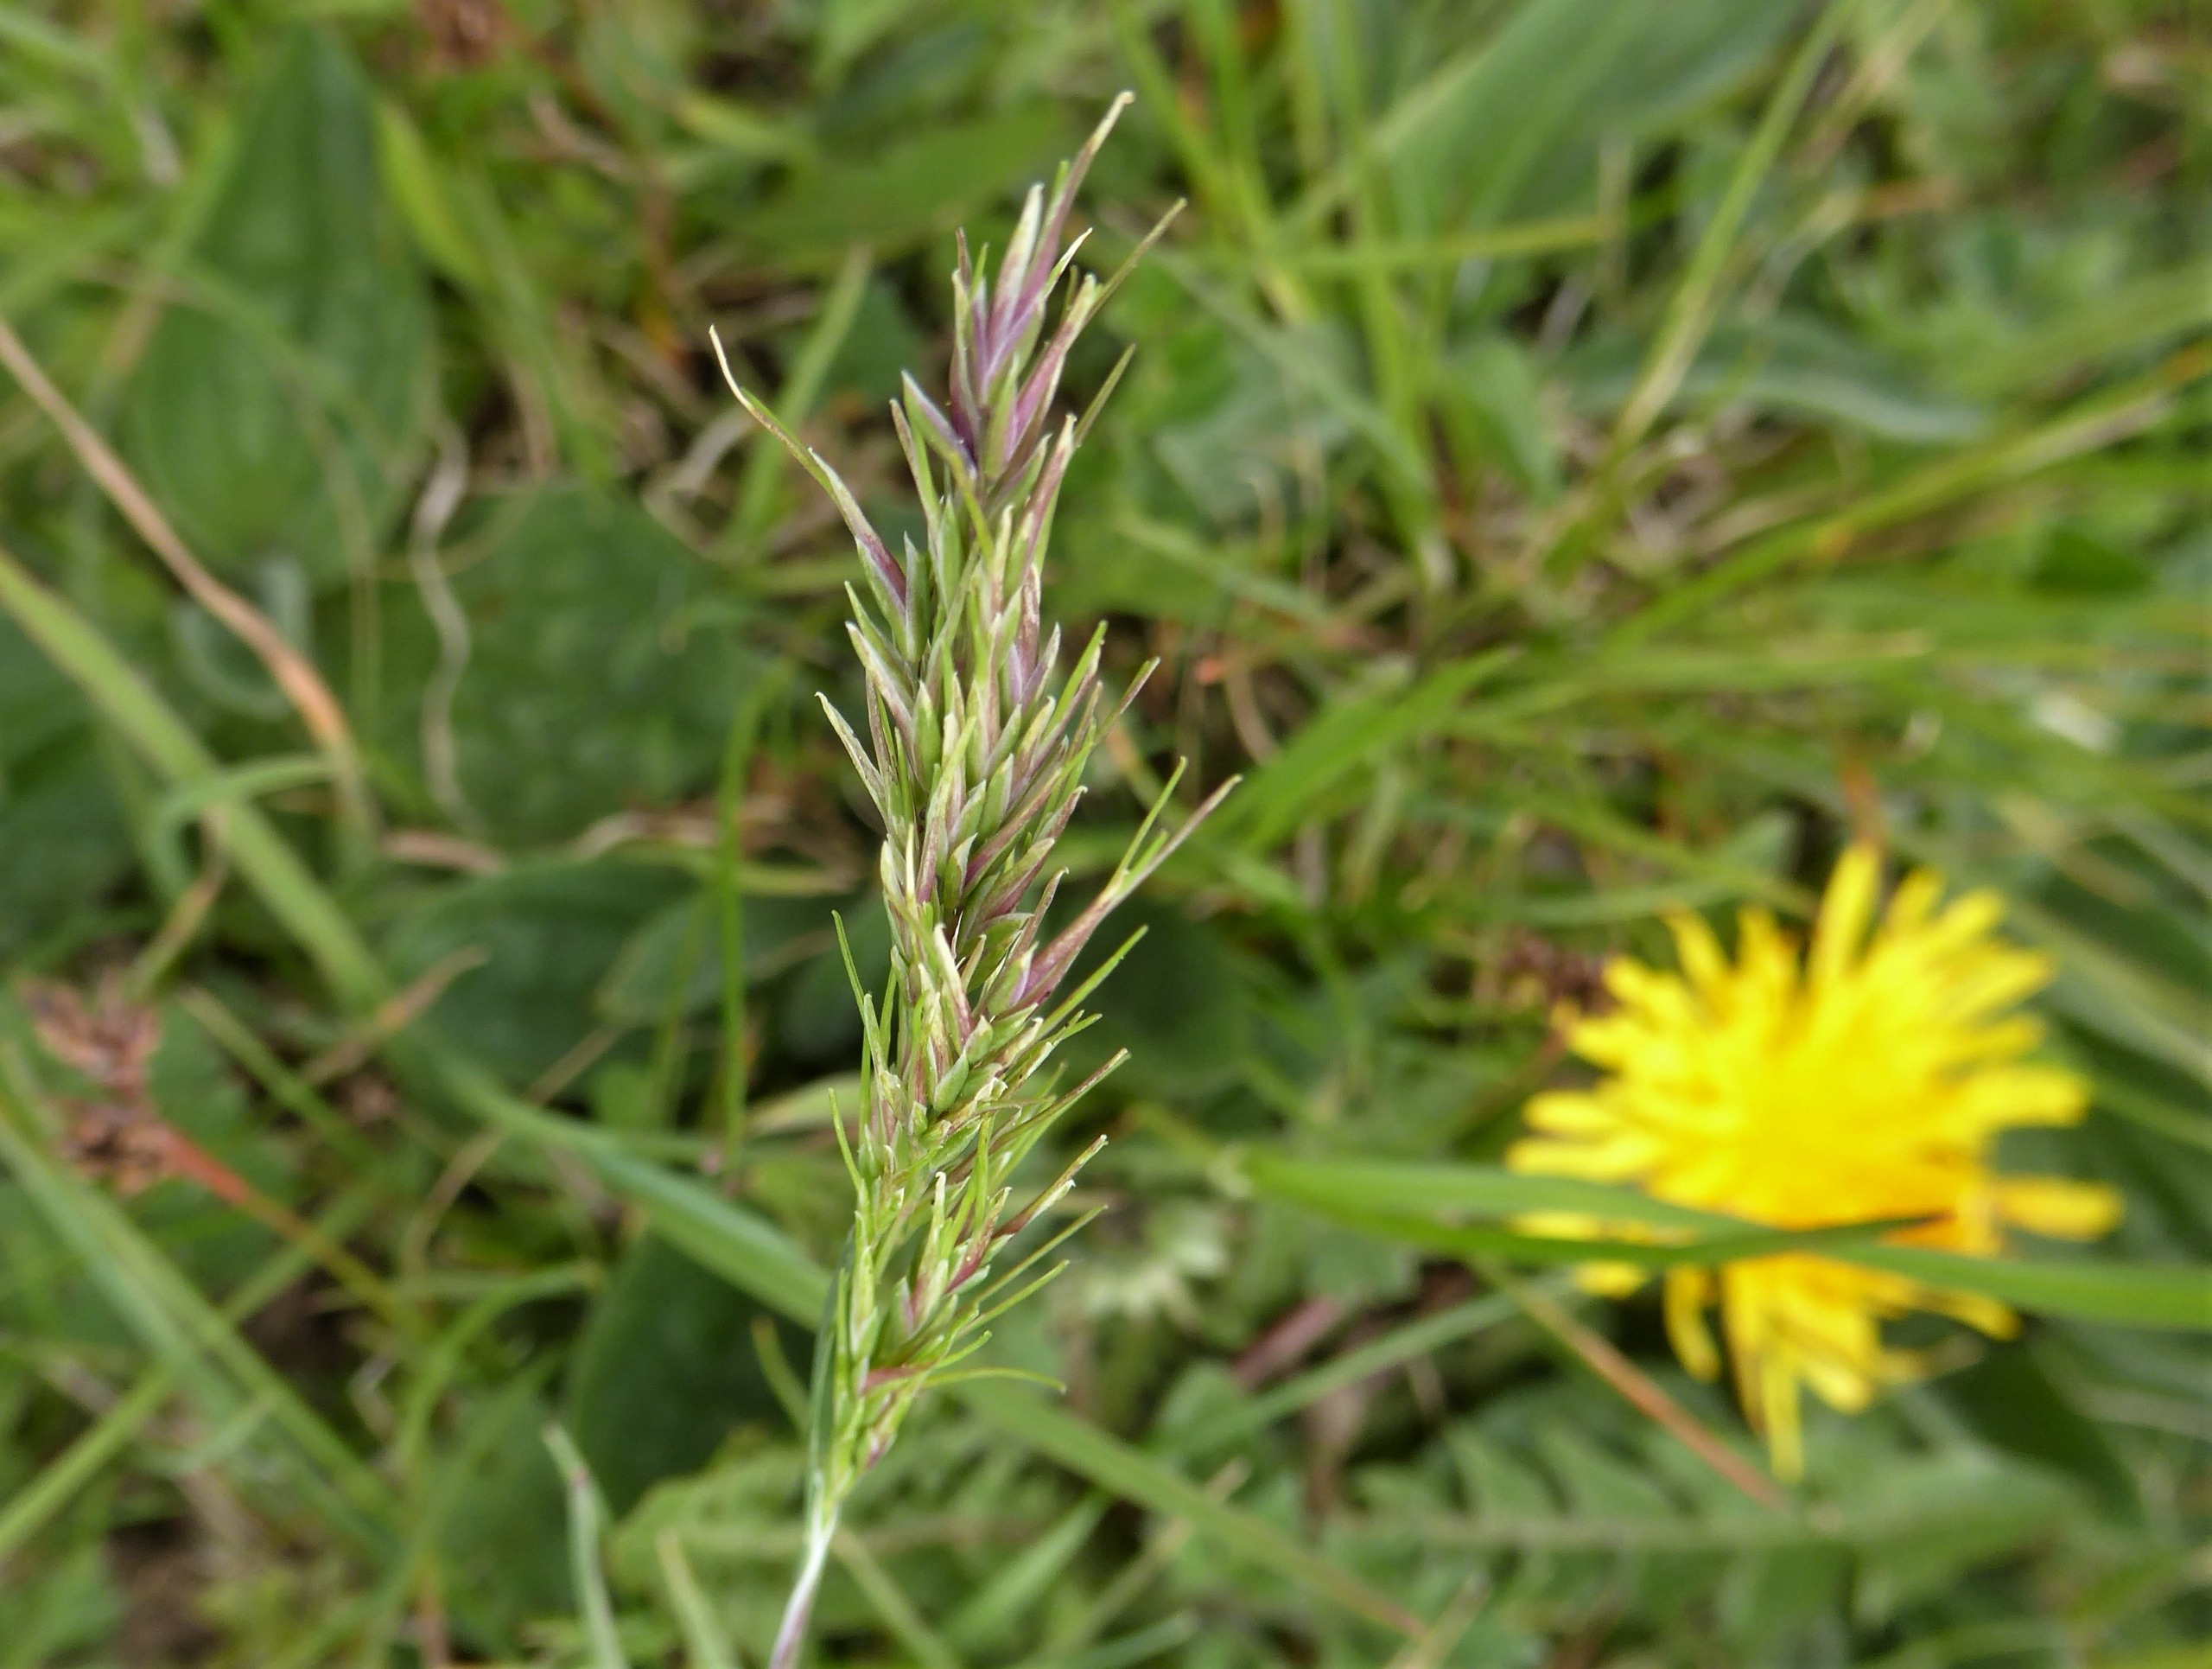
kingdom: Plantae
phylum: Tracheophyta
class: Liliopsida
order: Poales
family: Poaceae
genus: Poa
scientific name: Poa bulbosa
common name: Løg-rapgræs
